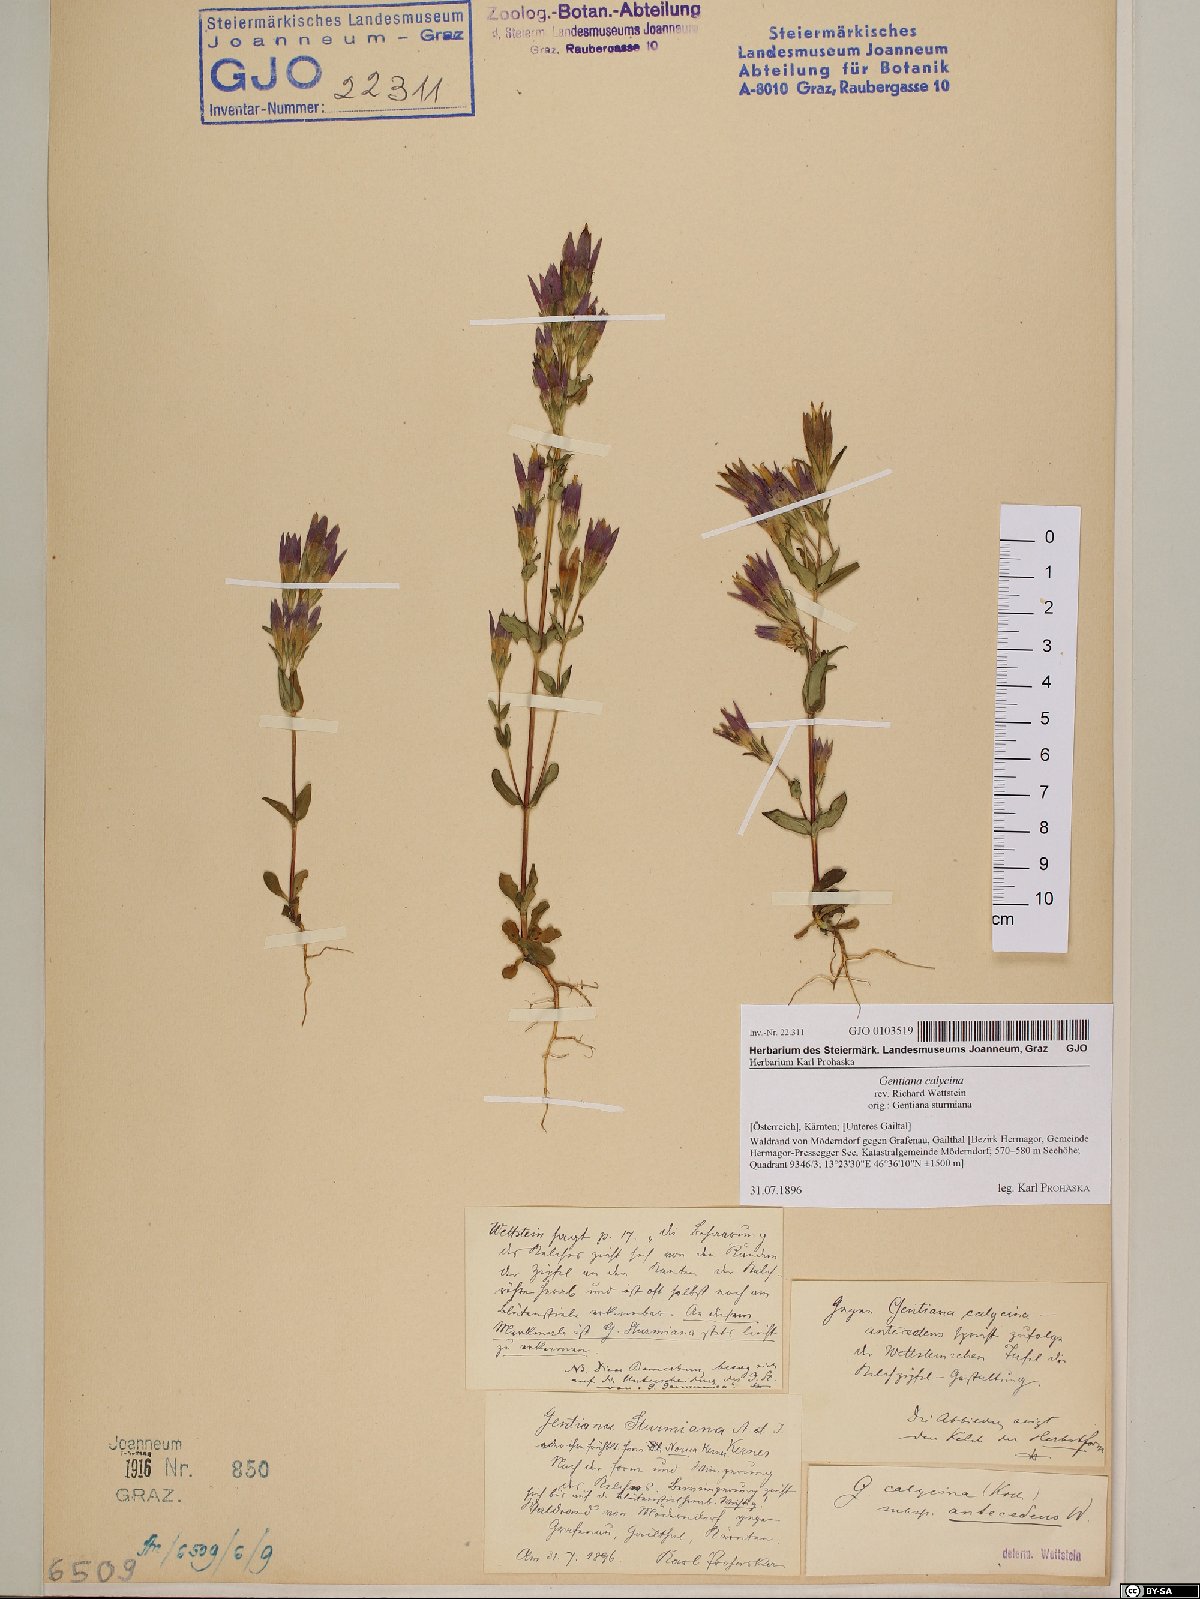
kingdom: Plantae
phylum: Tracheophyta
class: Magnoliopsida
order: Gentianales
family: Gentianaceae
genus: Gentianella
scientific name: Gentianella germanica
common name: Chiltern-gentian
